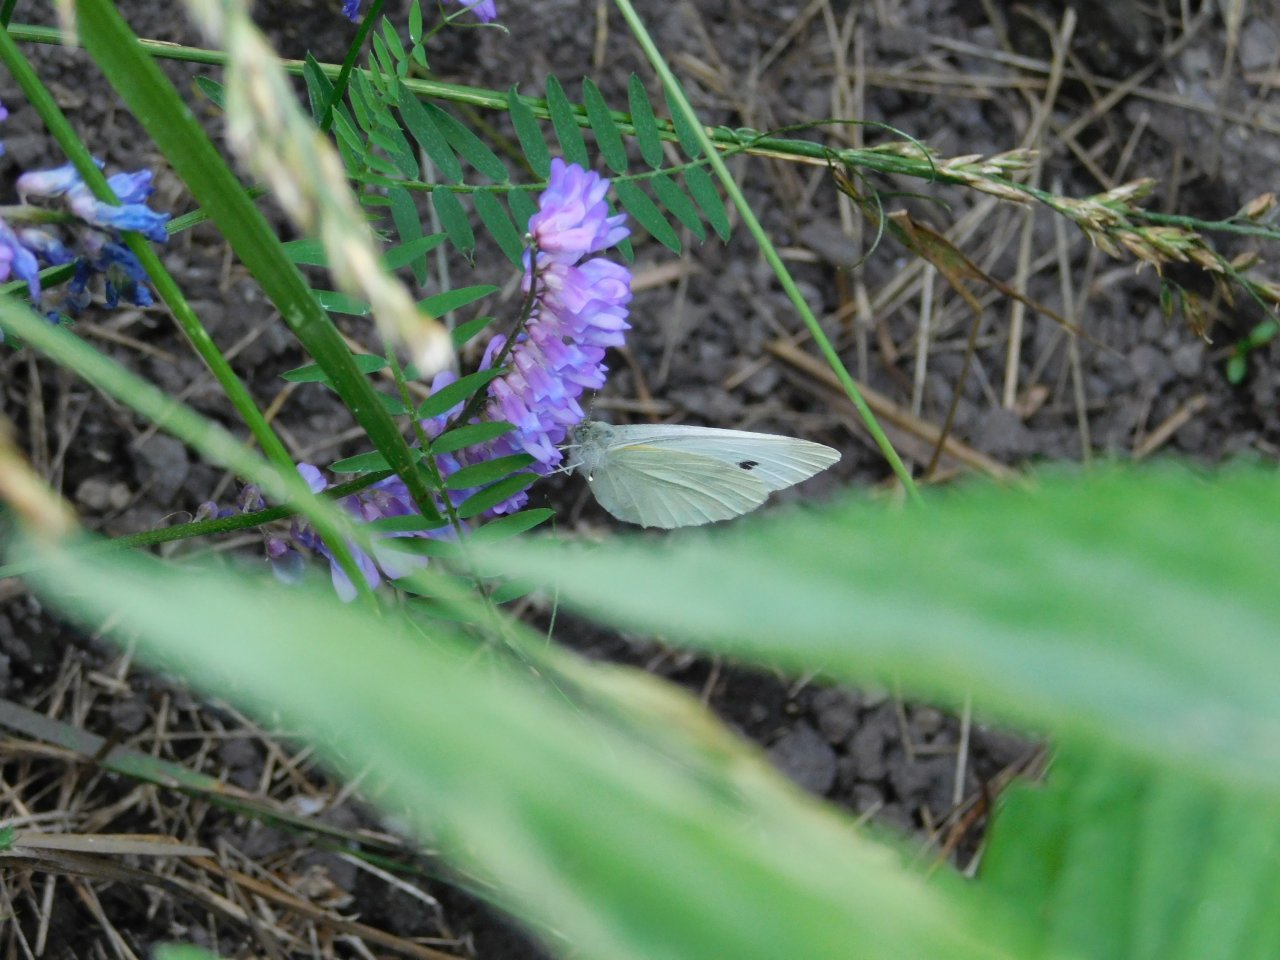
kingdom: Animalia
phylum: Arthropoda
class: Insecta
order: Lepidoptera
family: Pieridae
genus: Pieris
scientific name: Pieris rapae
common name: Cabbage White
